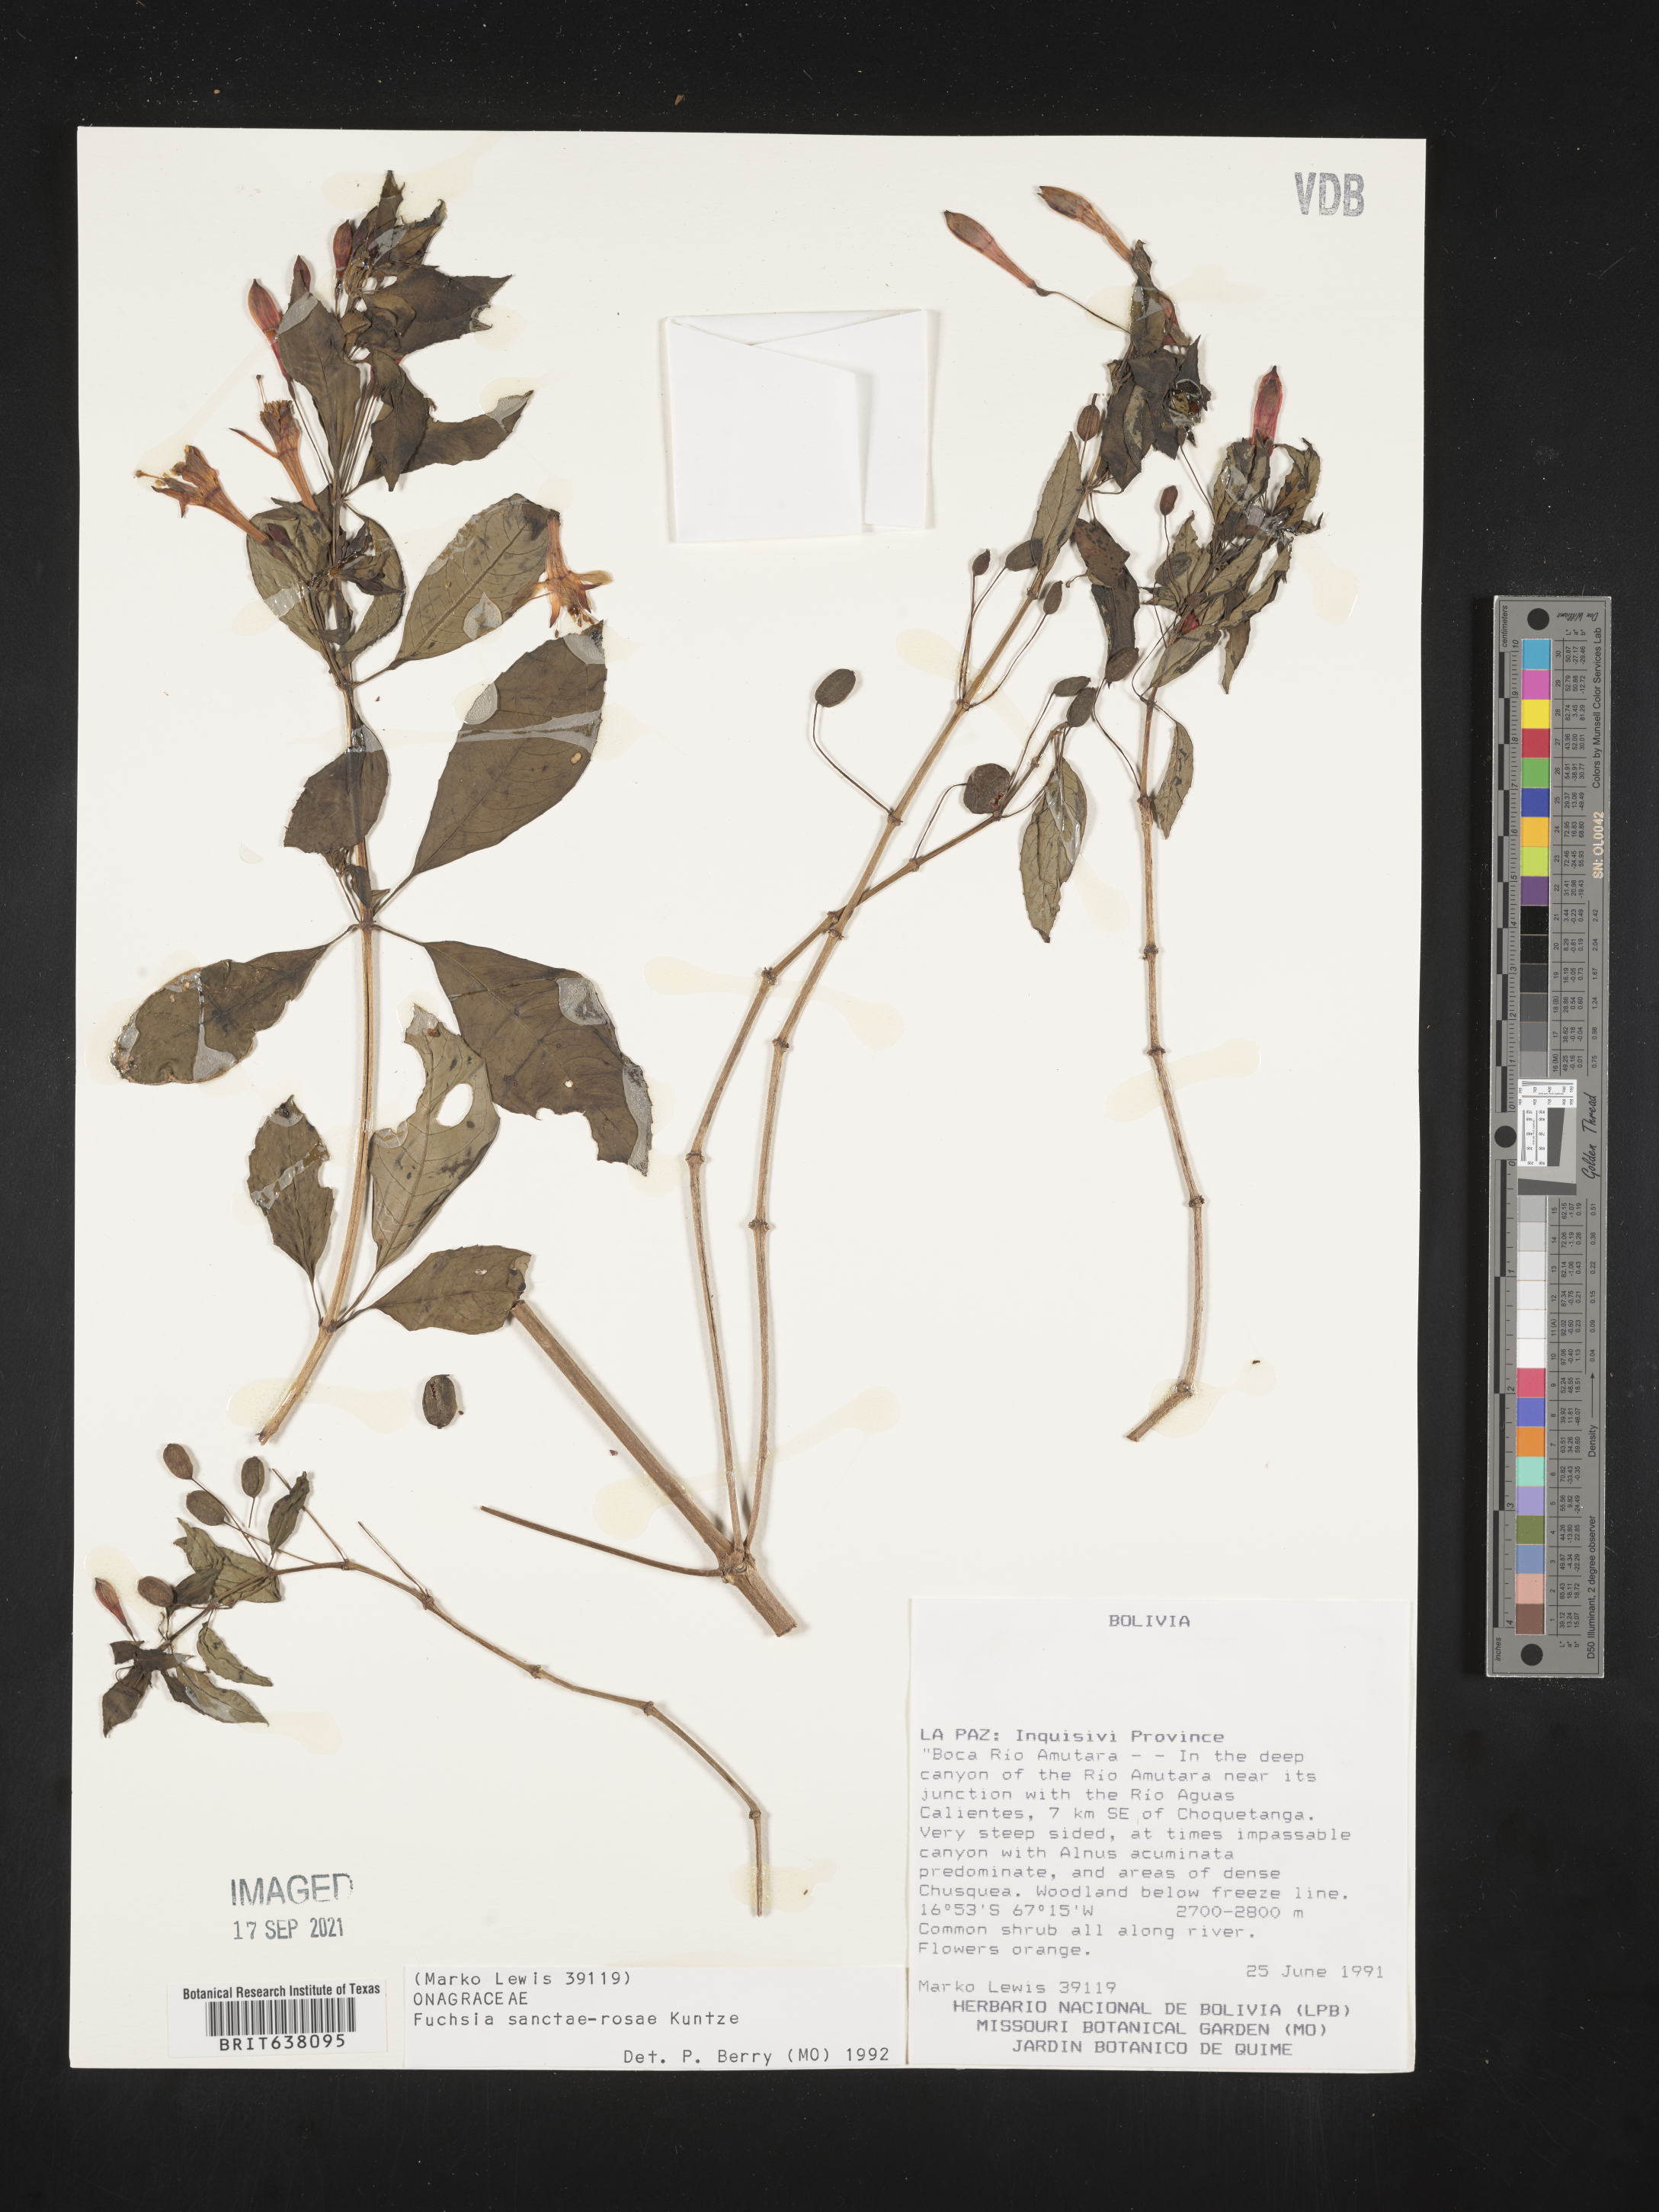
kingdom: Plantae
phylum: Tracheophyta
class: Magnoliopsida
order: Myrtales
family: Onagraceae
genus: Fuchsia
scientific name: Fuchsia
